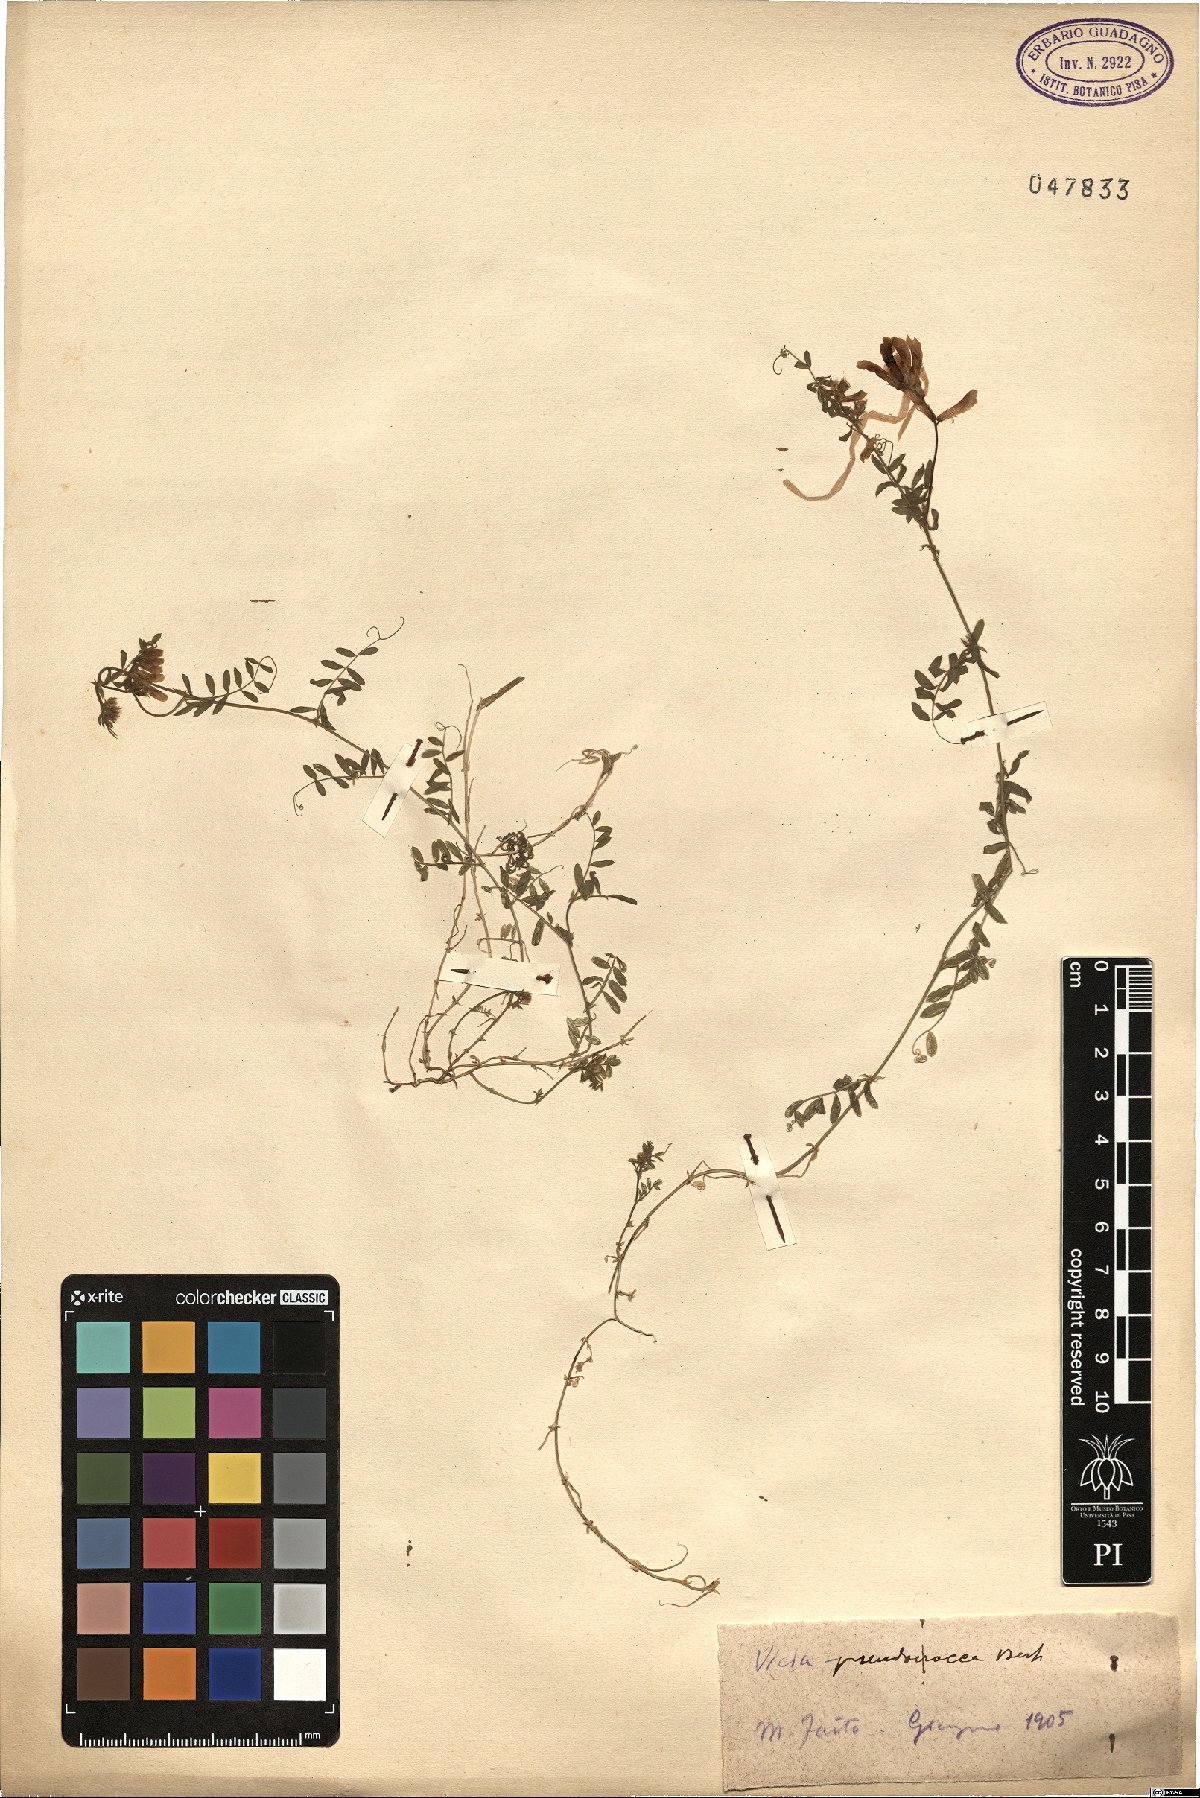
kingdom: Plantae
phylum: Tracheophyta
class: Magnoliopsida
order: Fabales
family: Fabaceae
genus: Vicia
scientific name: Vicia villosa
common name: Fodder vetch
